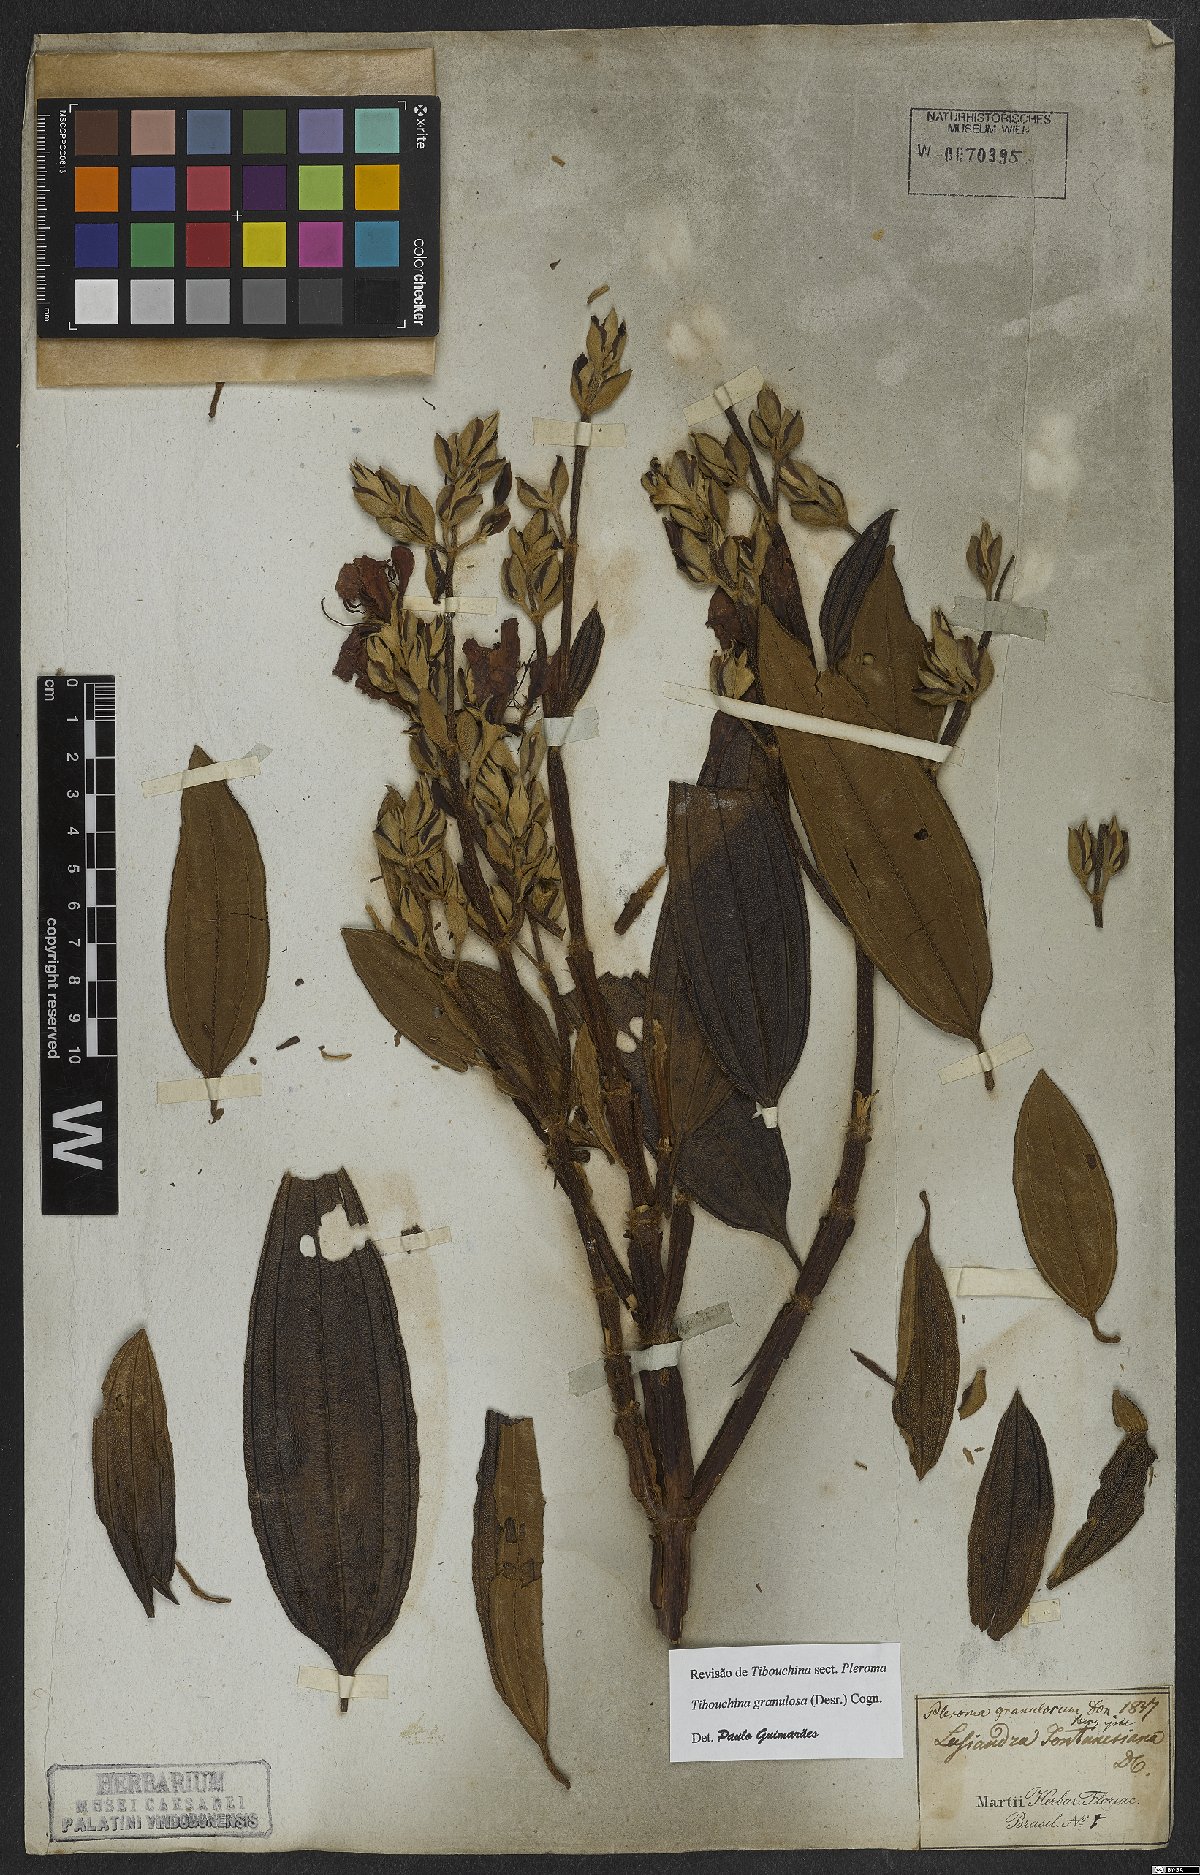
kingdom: Plantae
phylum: Tracheophyta
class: Magnoliopsida
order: Myrtales
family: Melastomataceae
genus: Pleroma
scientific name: Pleroma granulosum
